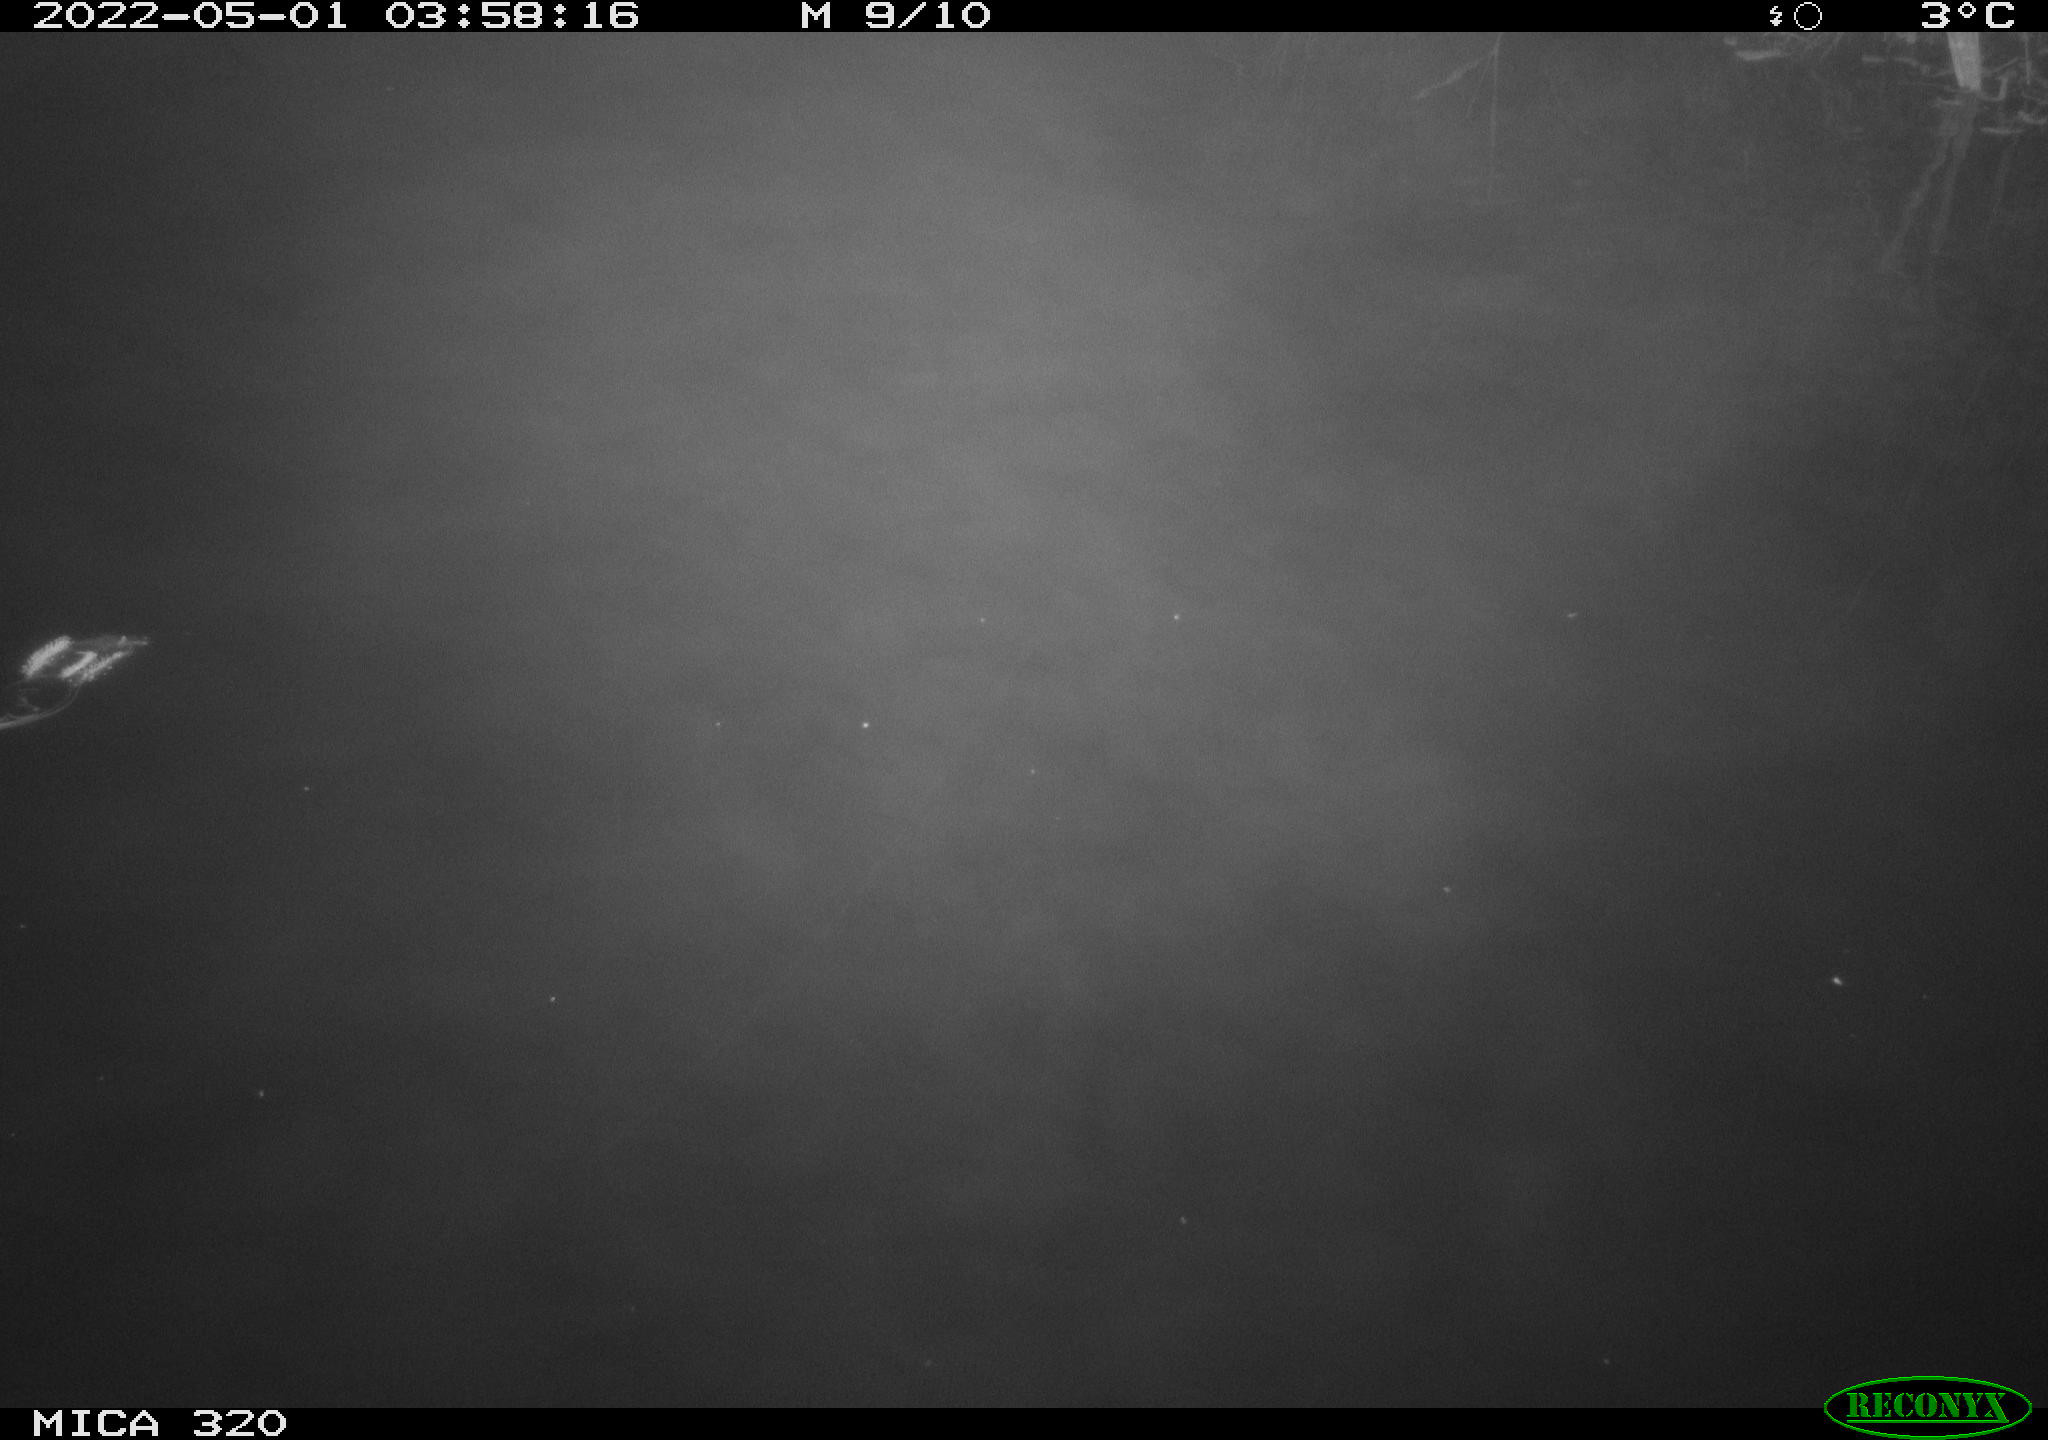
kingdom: Animalia
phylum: Chordata
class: Aves
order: Anseriformes
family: Anatidae
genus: Anas
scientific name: Anas platyrhynchos
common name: Mallard
